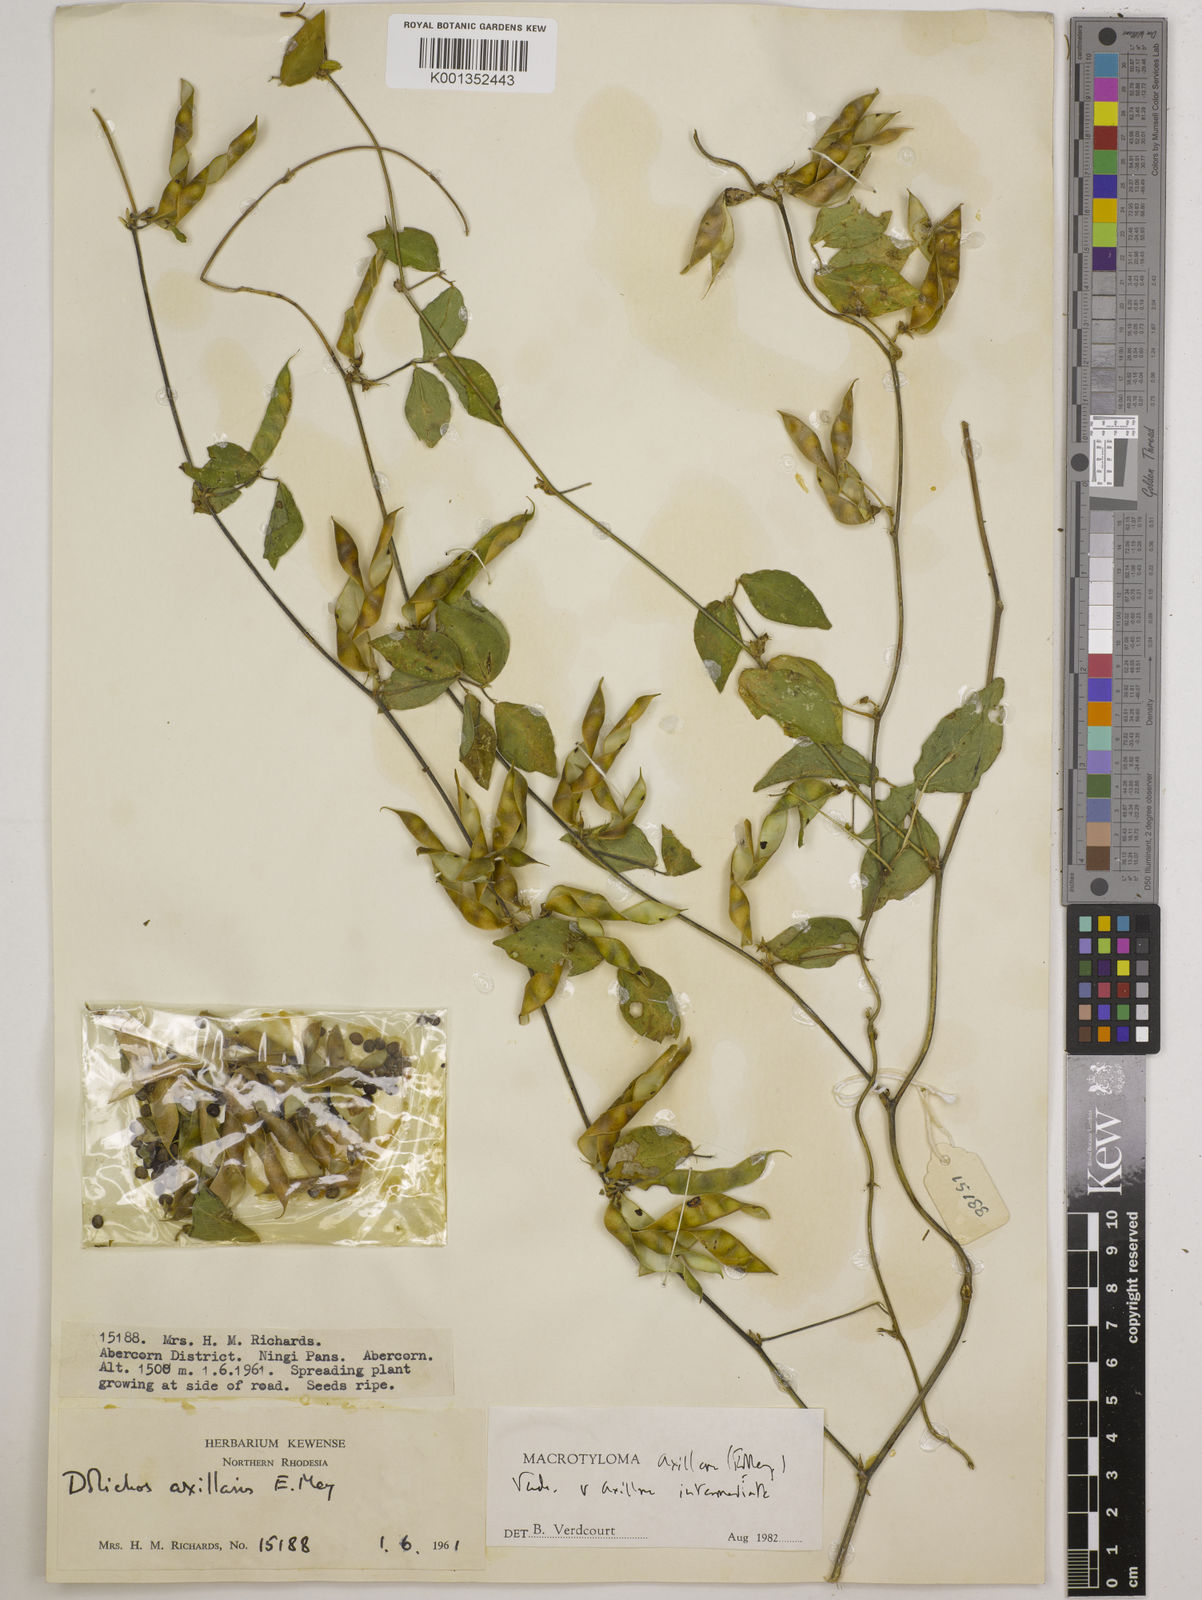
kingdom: Plantae
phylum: Tracheophyta
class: Magnoliopsida
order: Fabales
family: Fabaceae
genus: Macrotyloma
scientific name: Macrotyloma axillare
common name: Perennial horsegram
